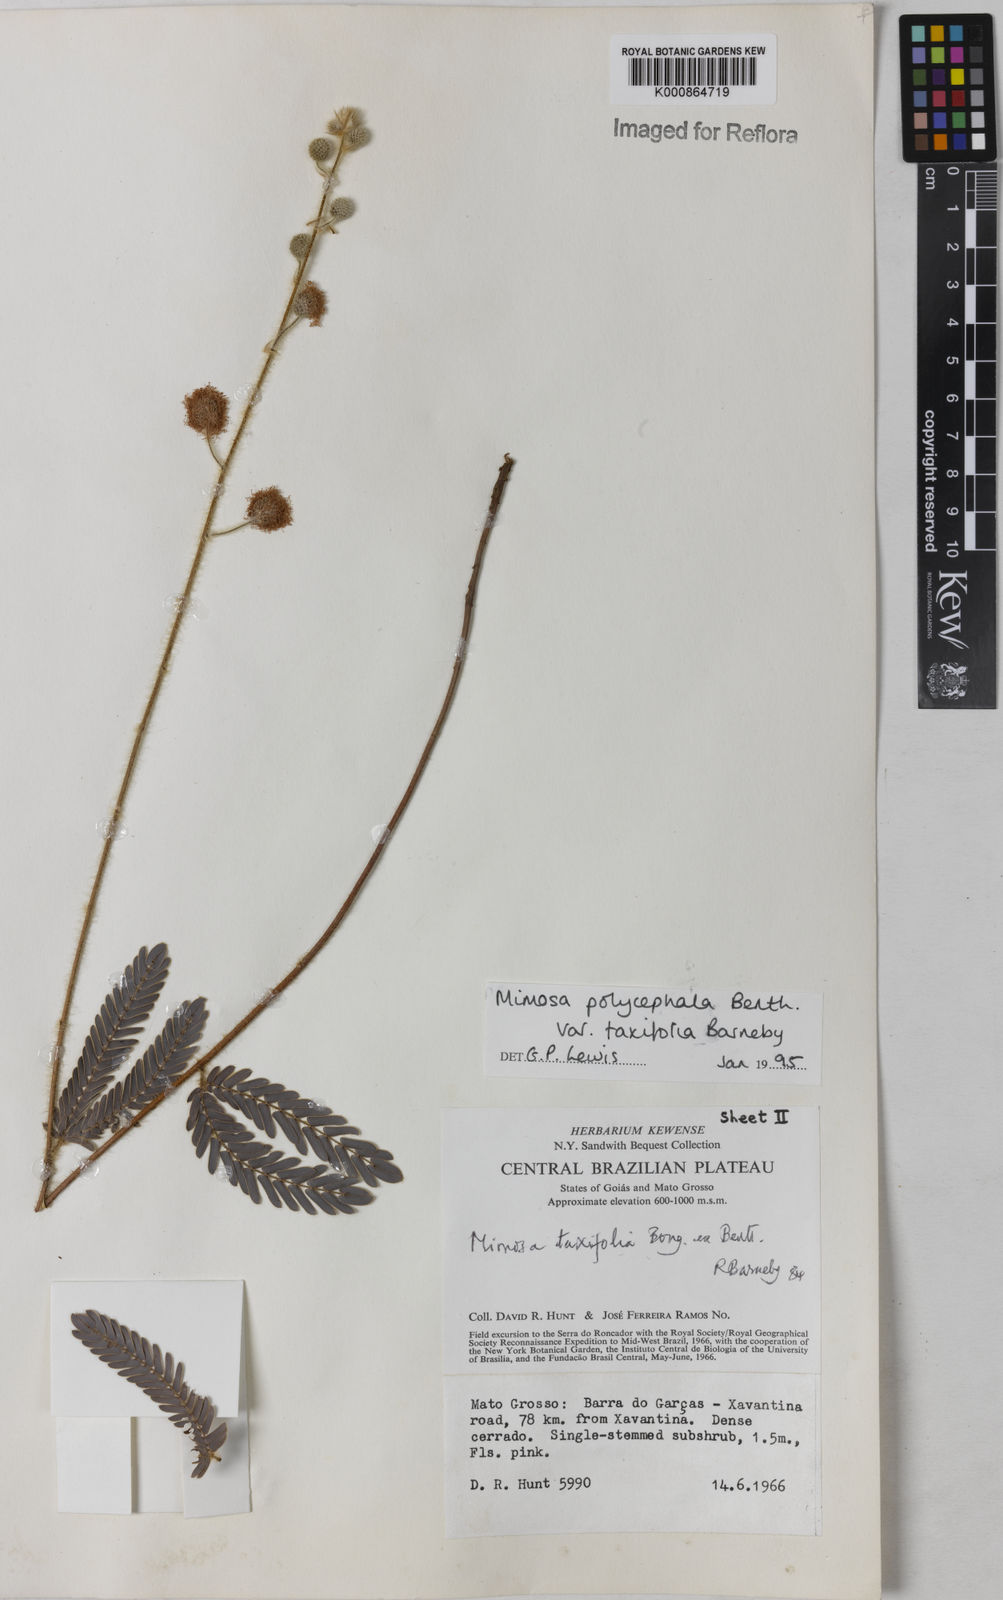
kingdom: Plantae
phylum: Tracheophyta
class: Magnoliopsida
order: Fabales
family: Fabaceae
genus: Mimosa
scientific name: Mimosa polycephala
